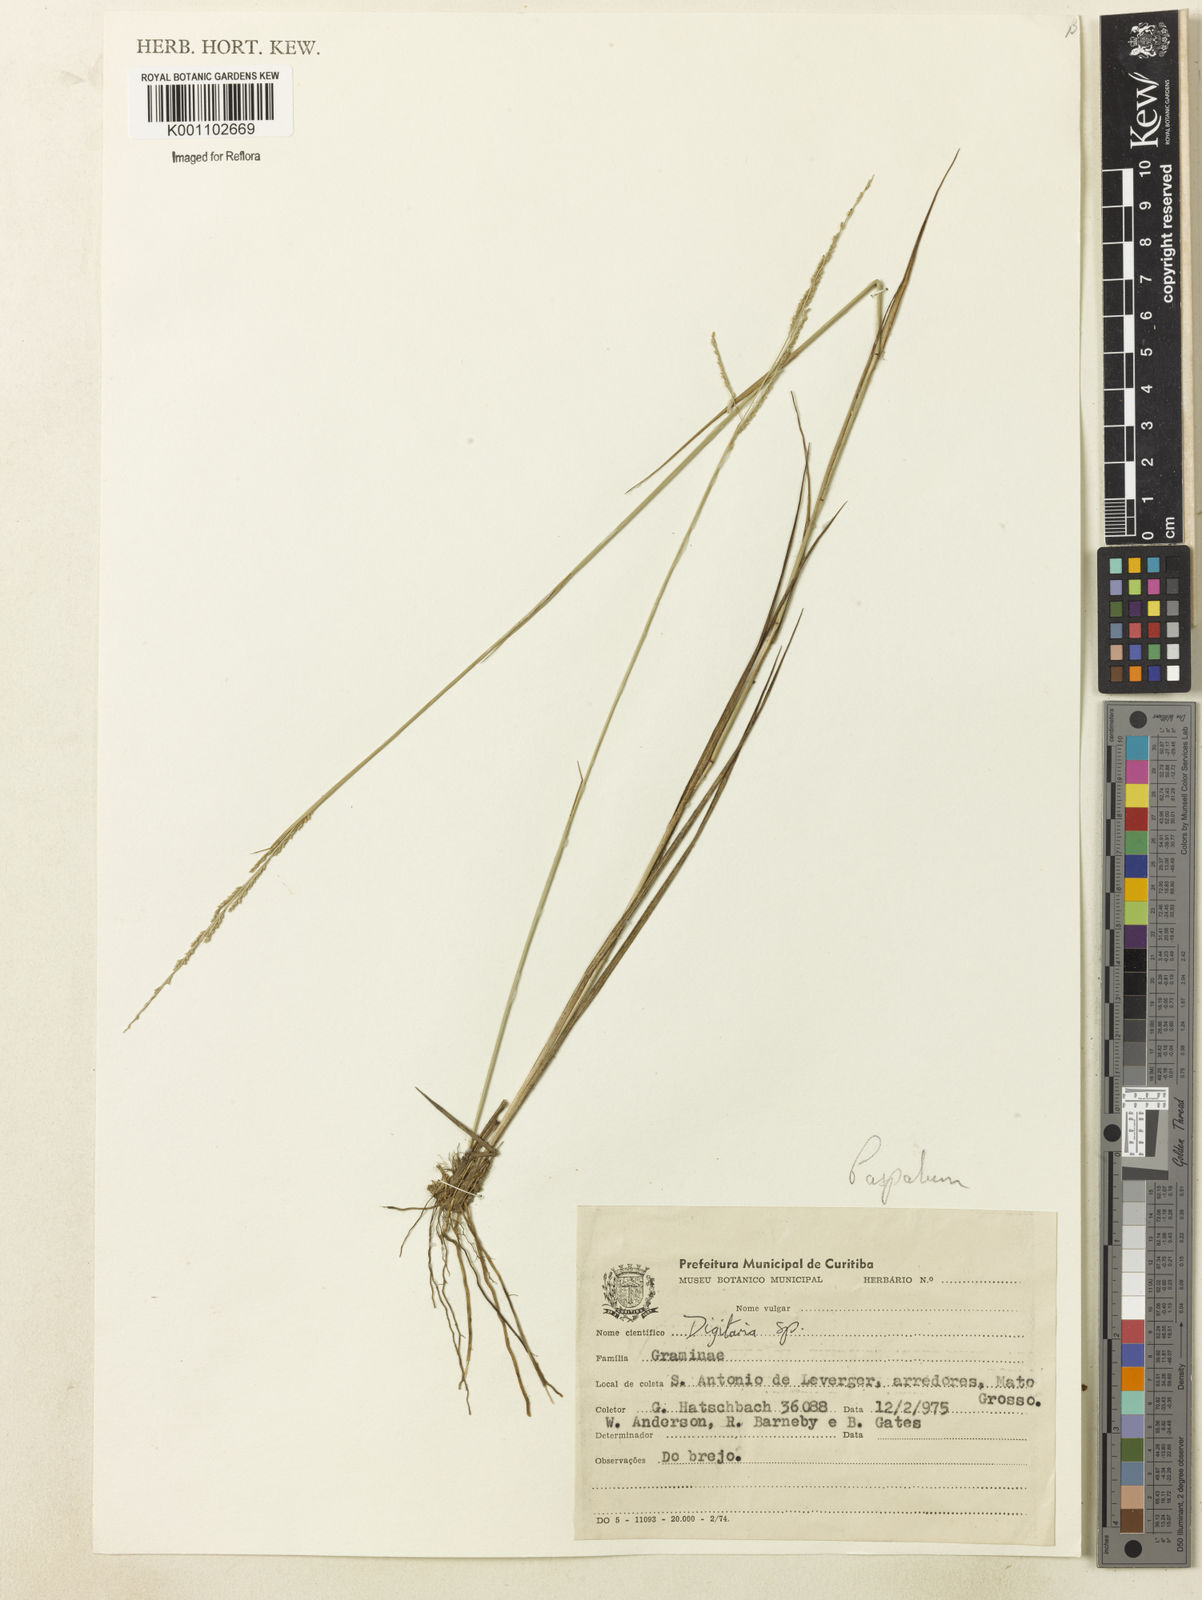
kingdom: Plantae
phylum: Tracheophyta
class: Liliopsida
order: Poales
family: Poaceae
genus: Paspalum
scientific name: Paspalum
